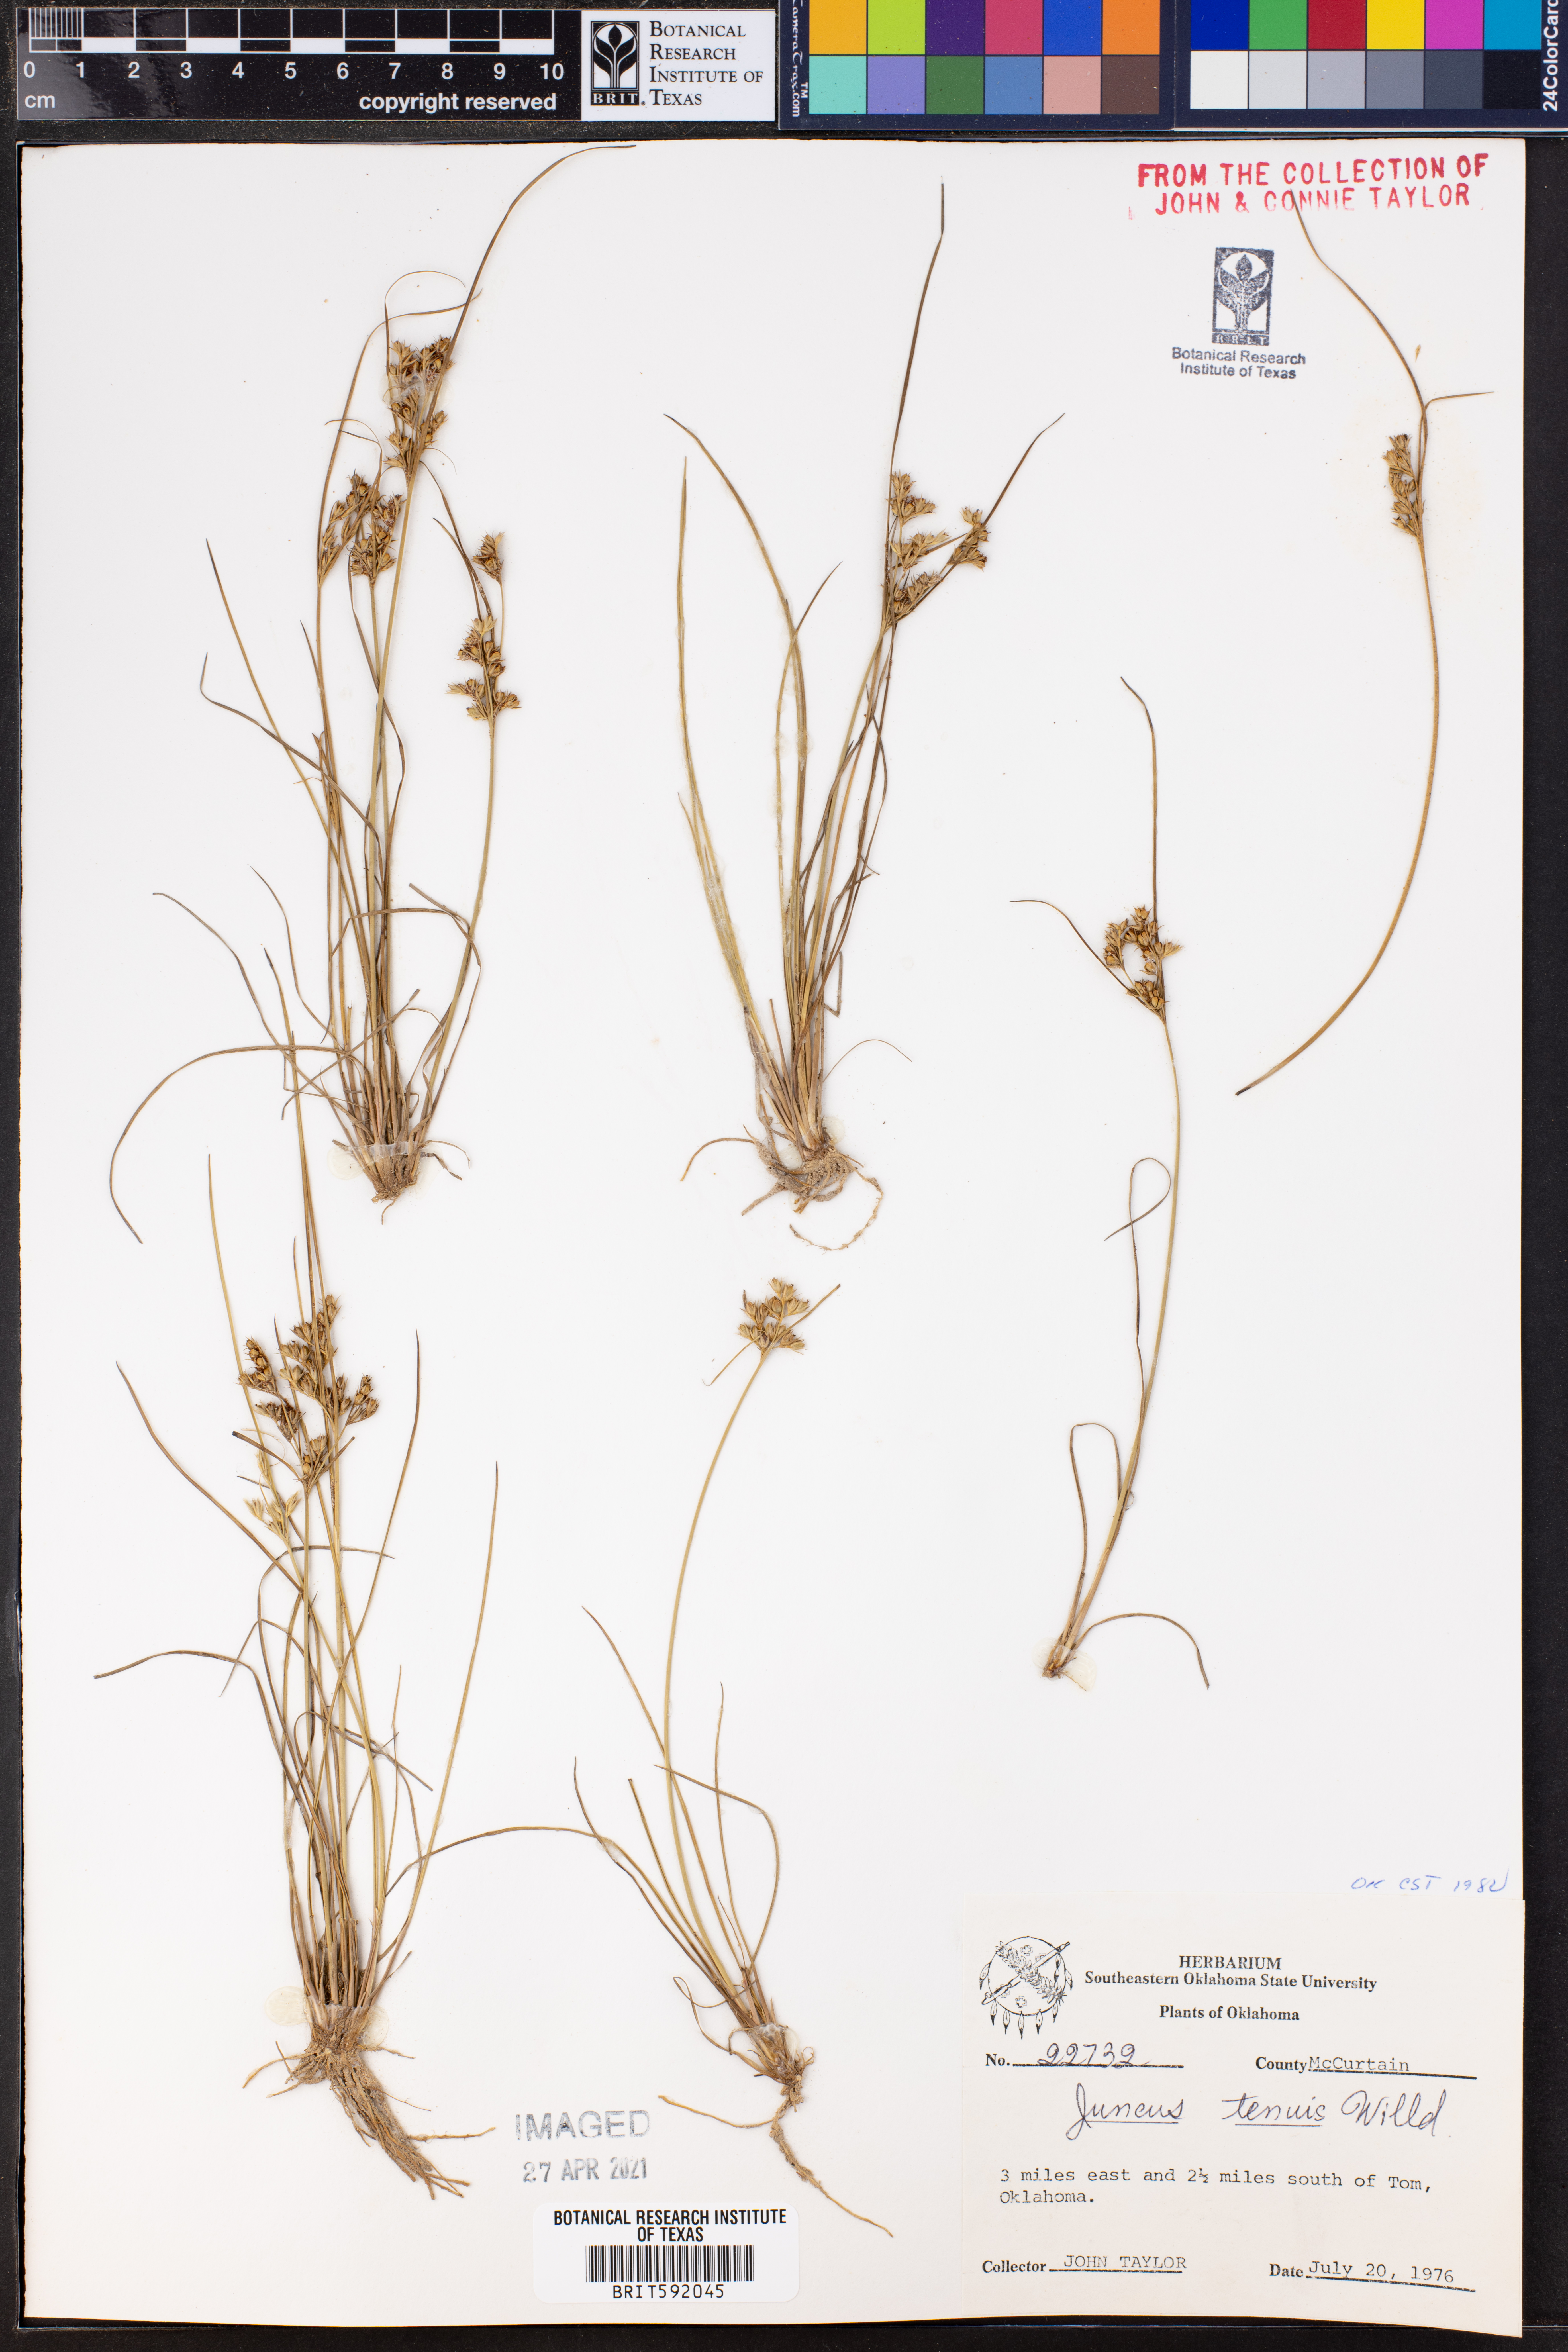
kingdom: Plantae
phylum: Tracheophyta
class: Liliopsida
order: Poales
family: Juncaceae
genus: Juncus
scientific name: Juncus tenageia
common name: Sand rush
